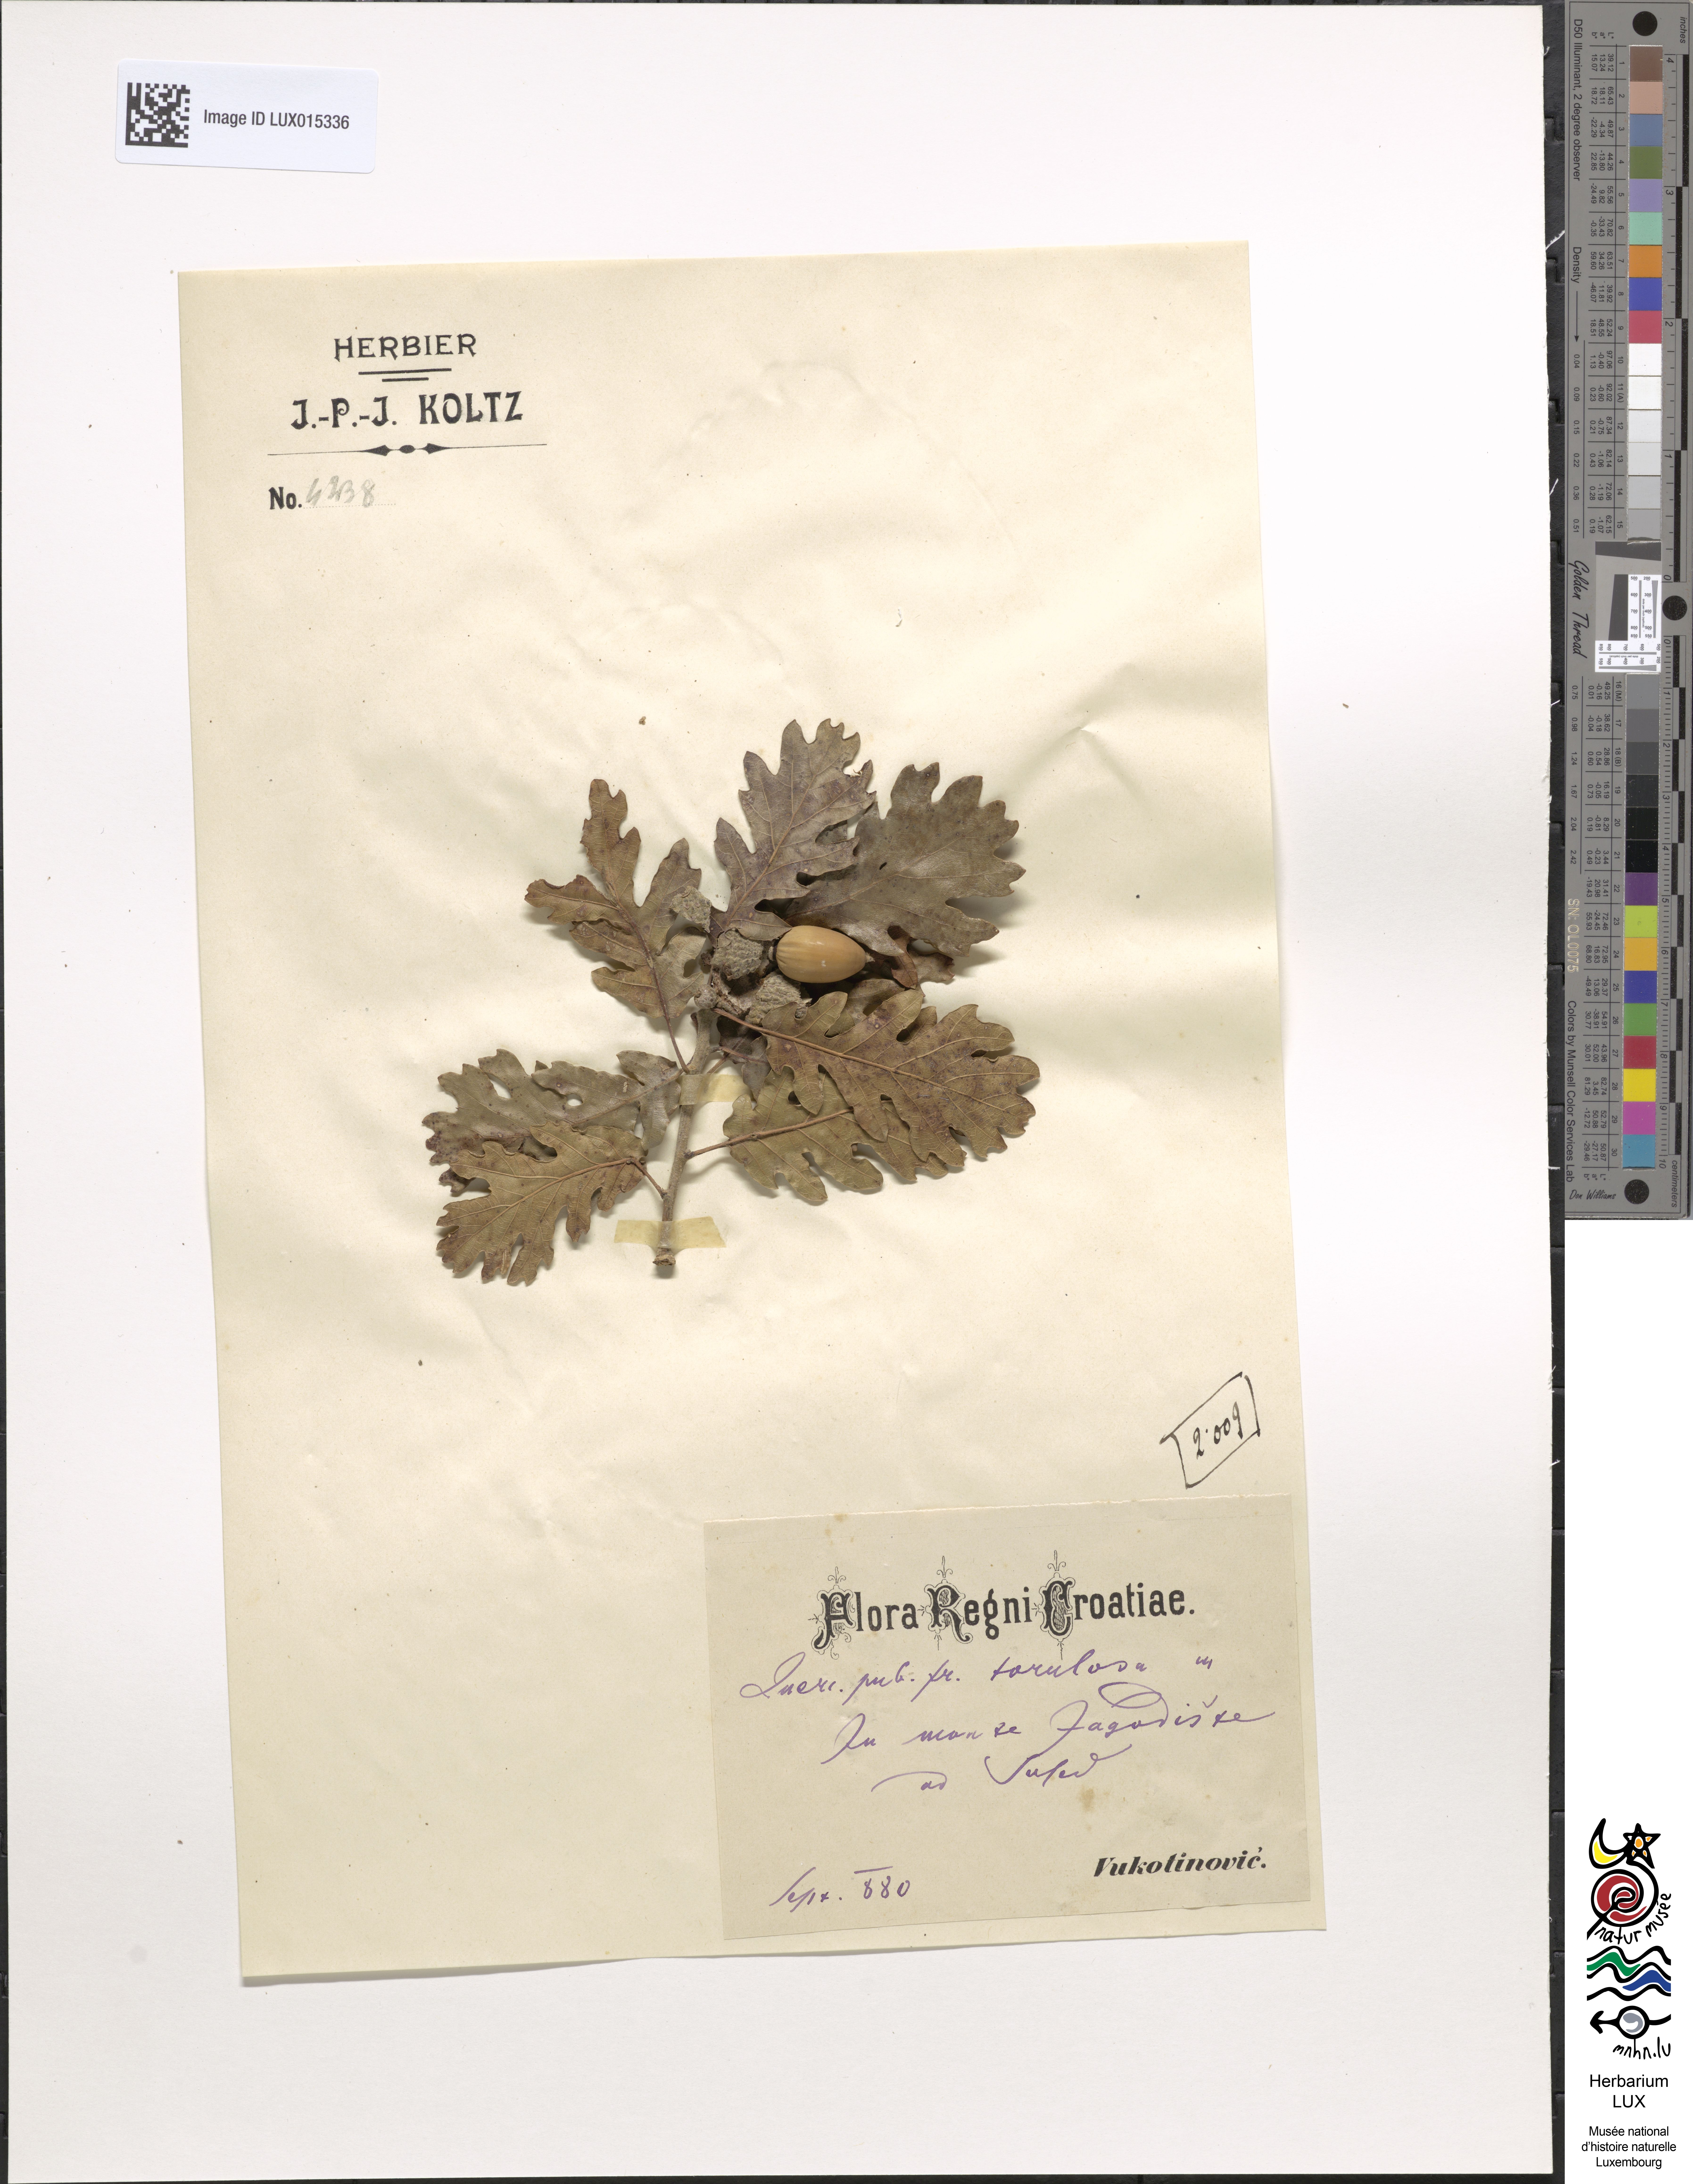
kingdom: Plantae
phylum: Tracheophyta
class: Magnoliopsida
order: Fagales
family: Fagaceae
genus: Quercus
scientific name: Quercus pubescens
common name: Downy oak
